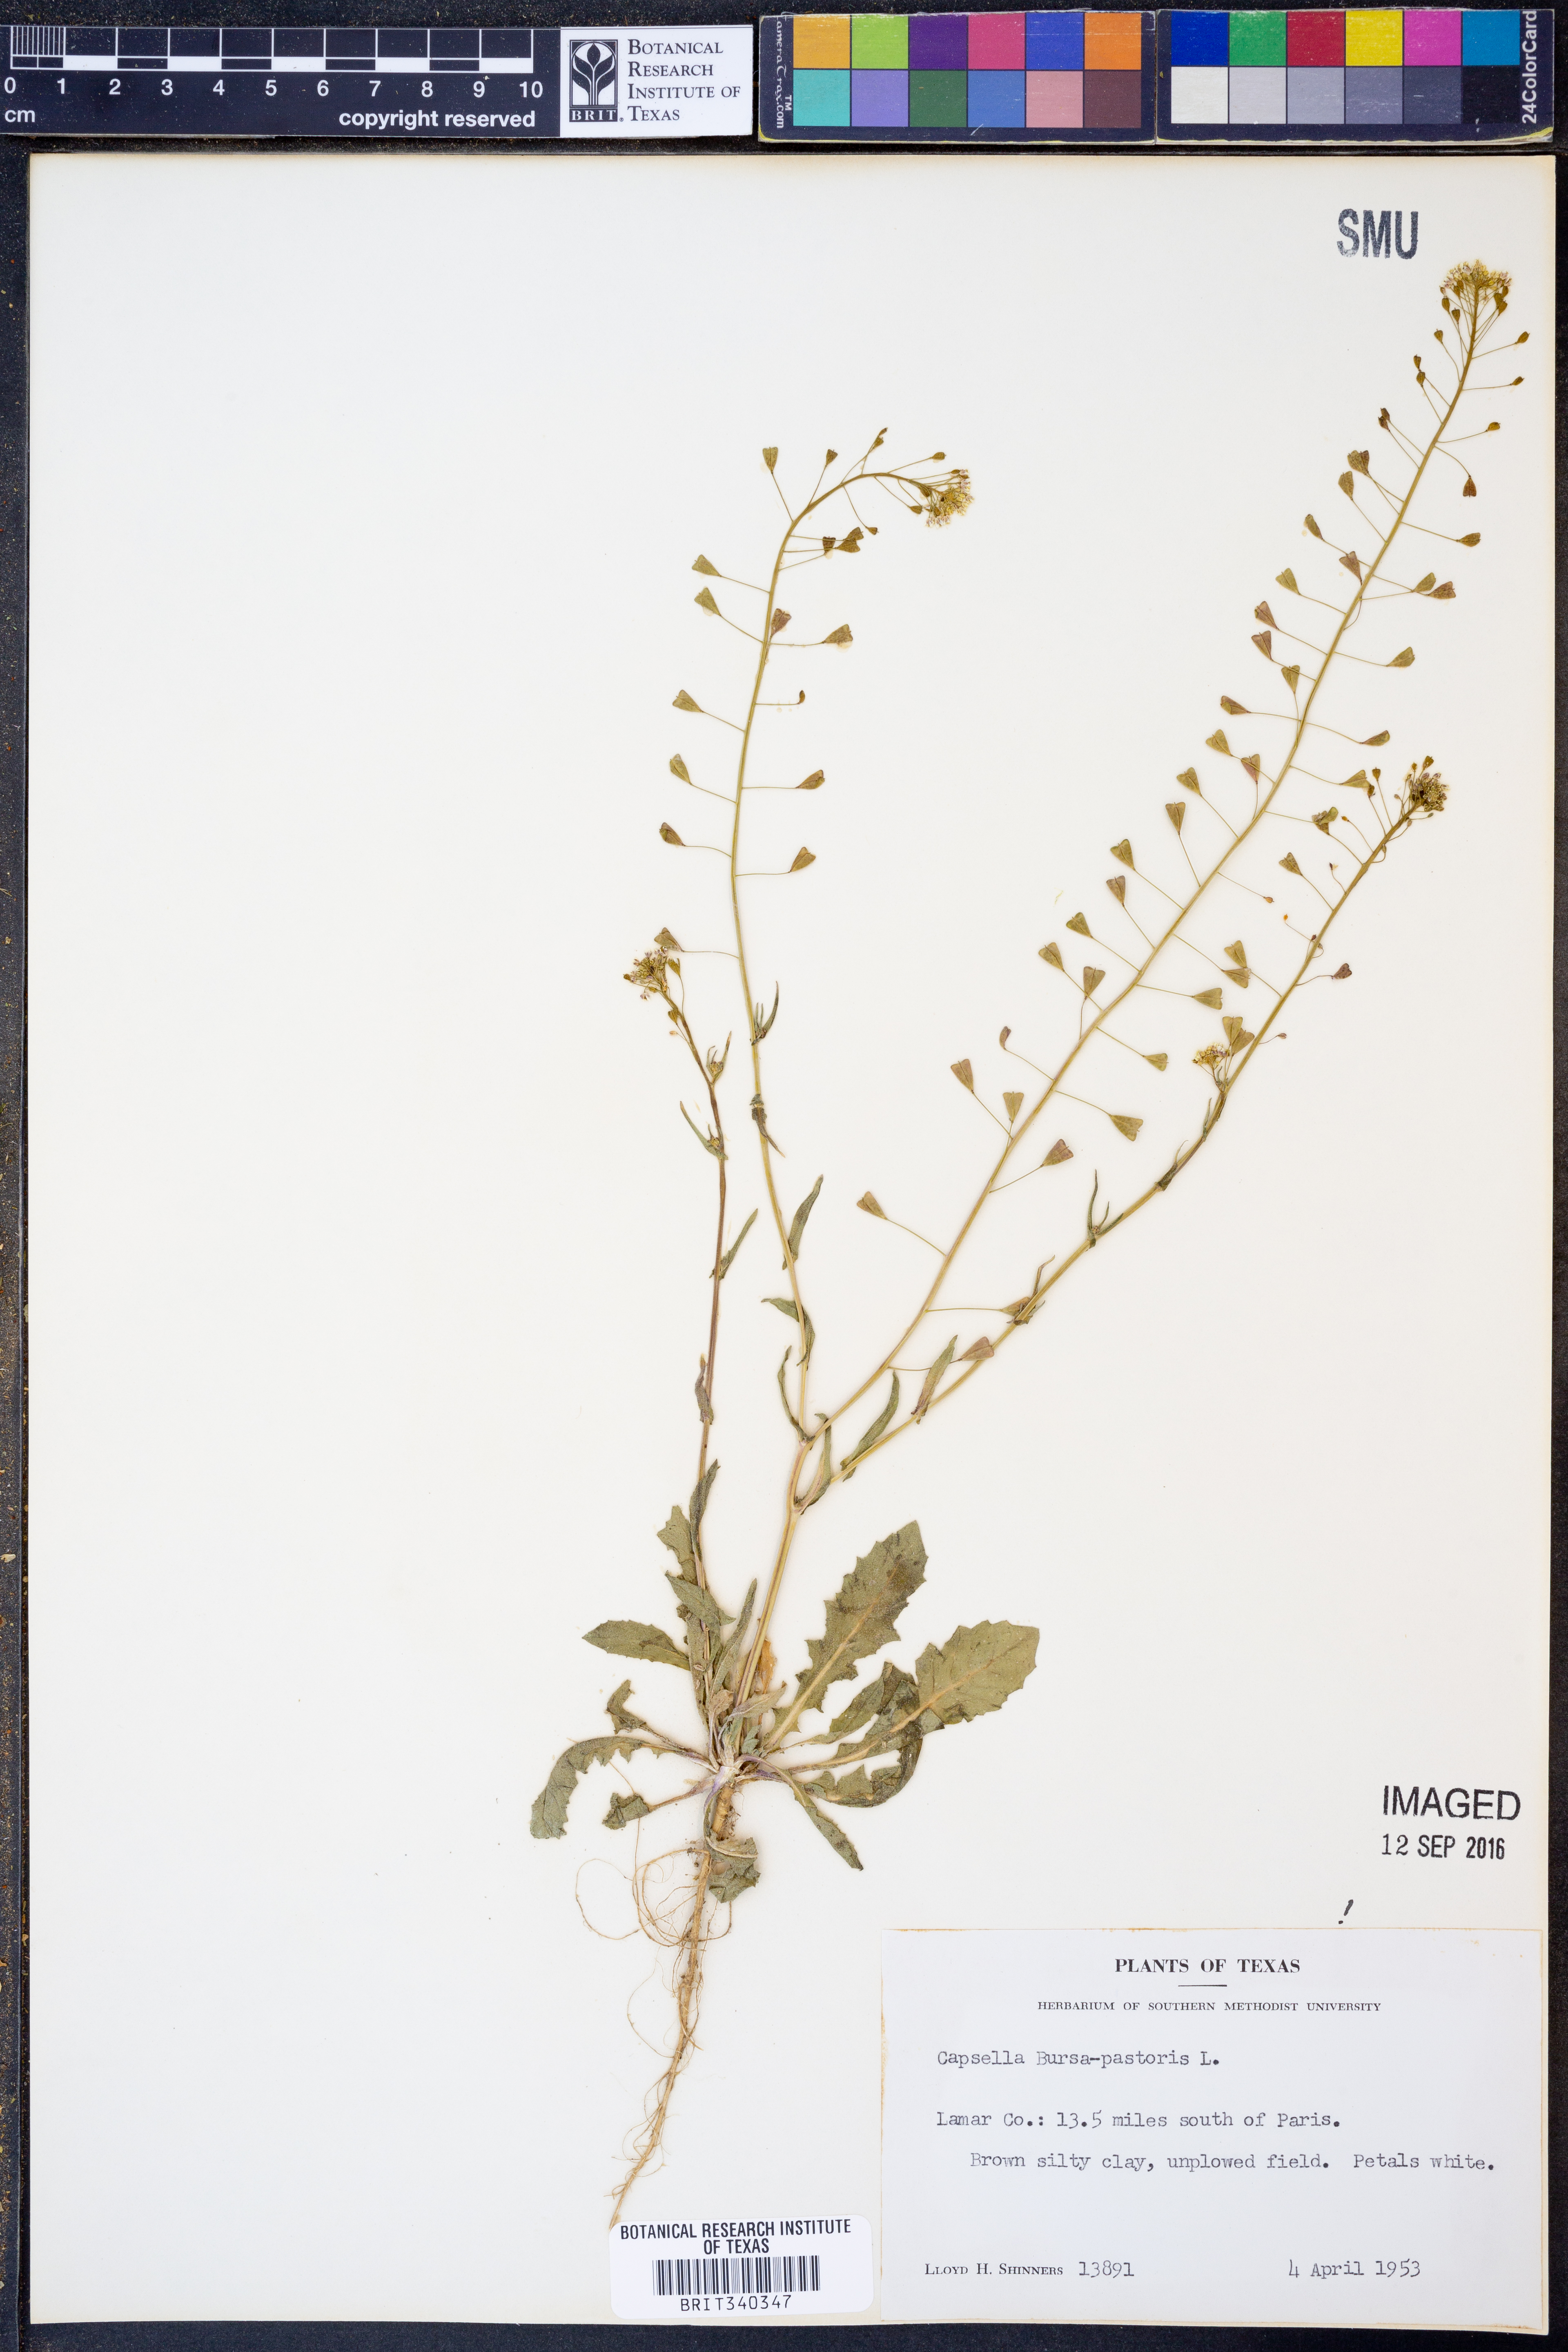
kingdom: Plantae
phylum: Tracheophyta
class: Magnoliopsida
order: Brassicales
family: Brassicaceae
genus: Capsella
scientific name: Capsella bursa-pastoris
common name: Shepherd's purse
